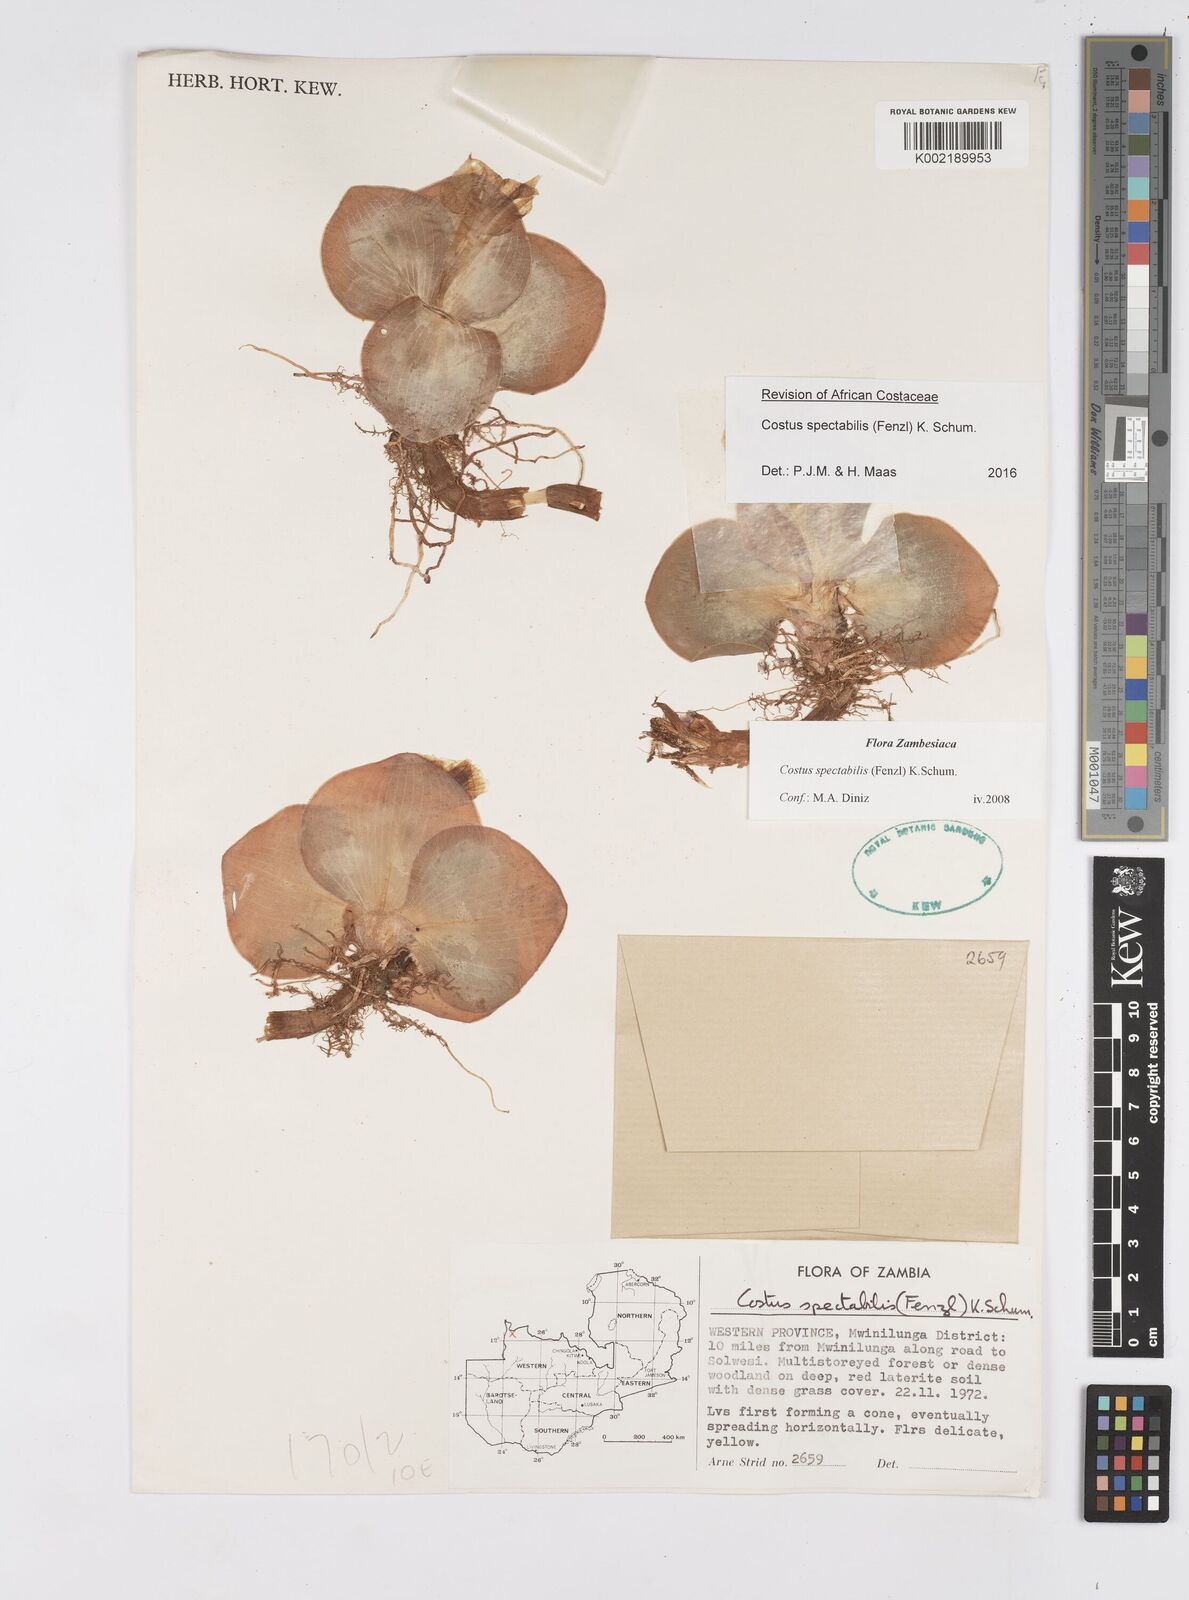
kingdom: Plantae
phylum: Tracheophyta
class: Liliopsida
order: Zingiberales
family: Costaceae
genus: Costus
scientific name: Costus spectabilis
